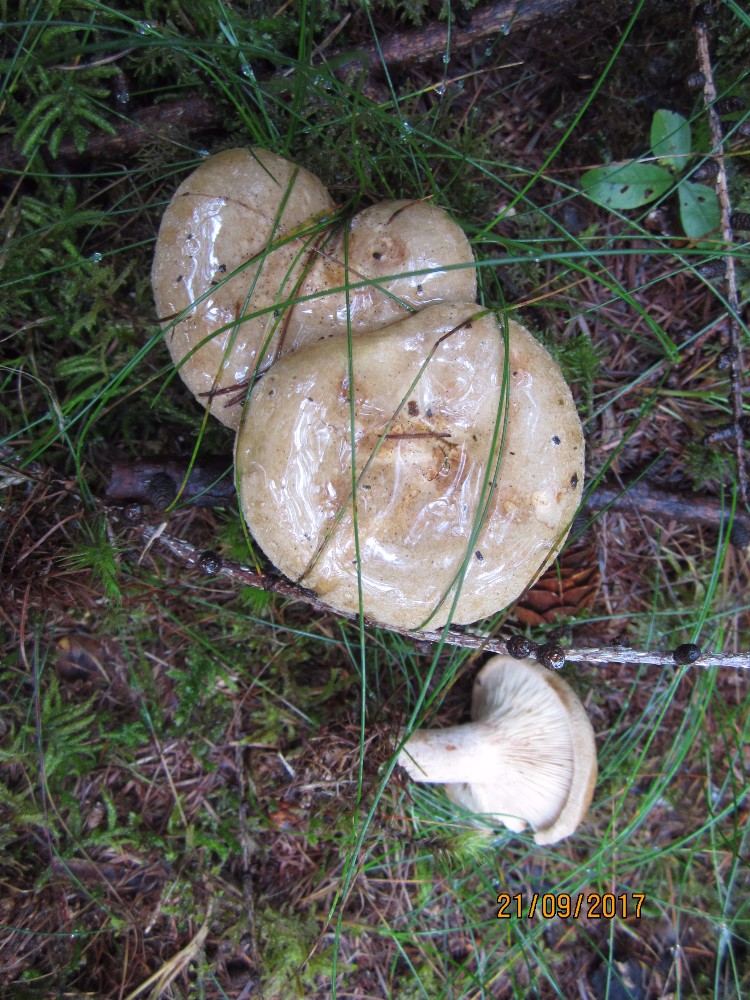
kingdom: Fungi
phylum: Basidiomycota
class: Agaricomycetes
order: Boletales
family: Paxillaceae
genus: Paxillus
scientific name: Paxillus involutus
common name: almindelig netbladhat
